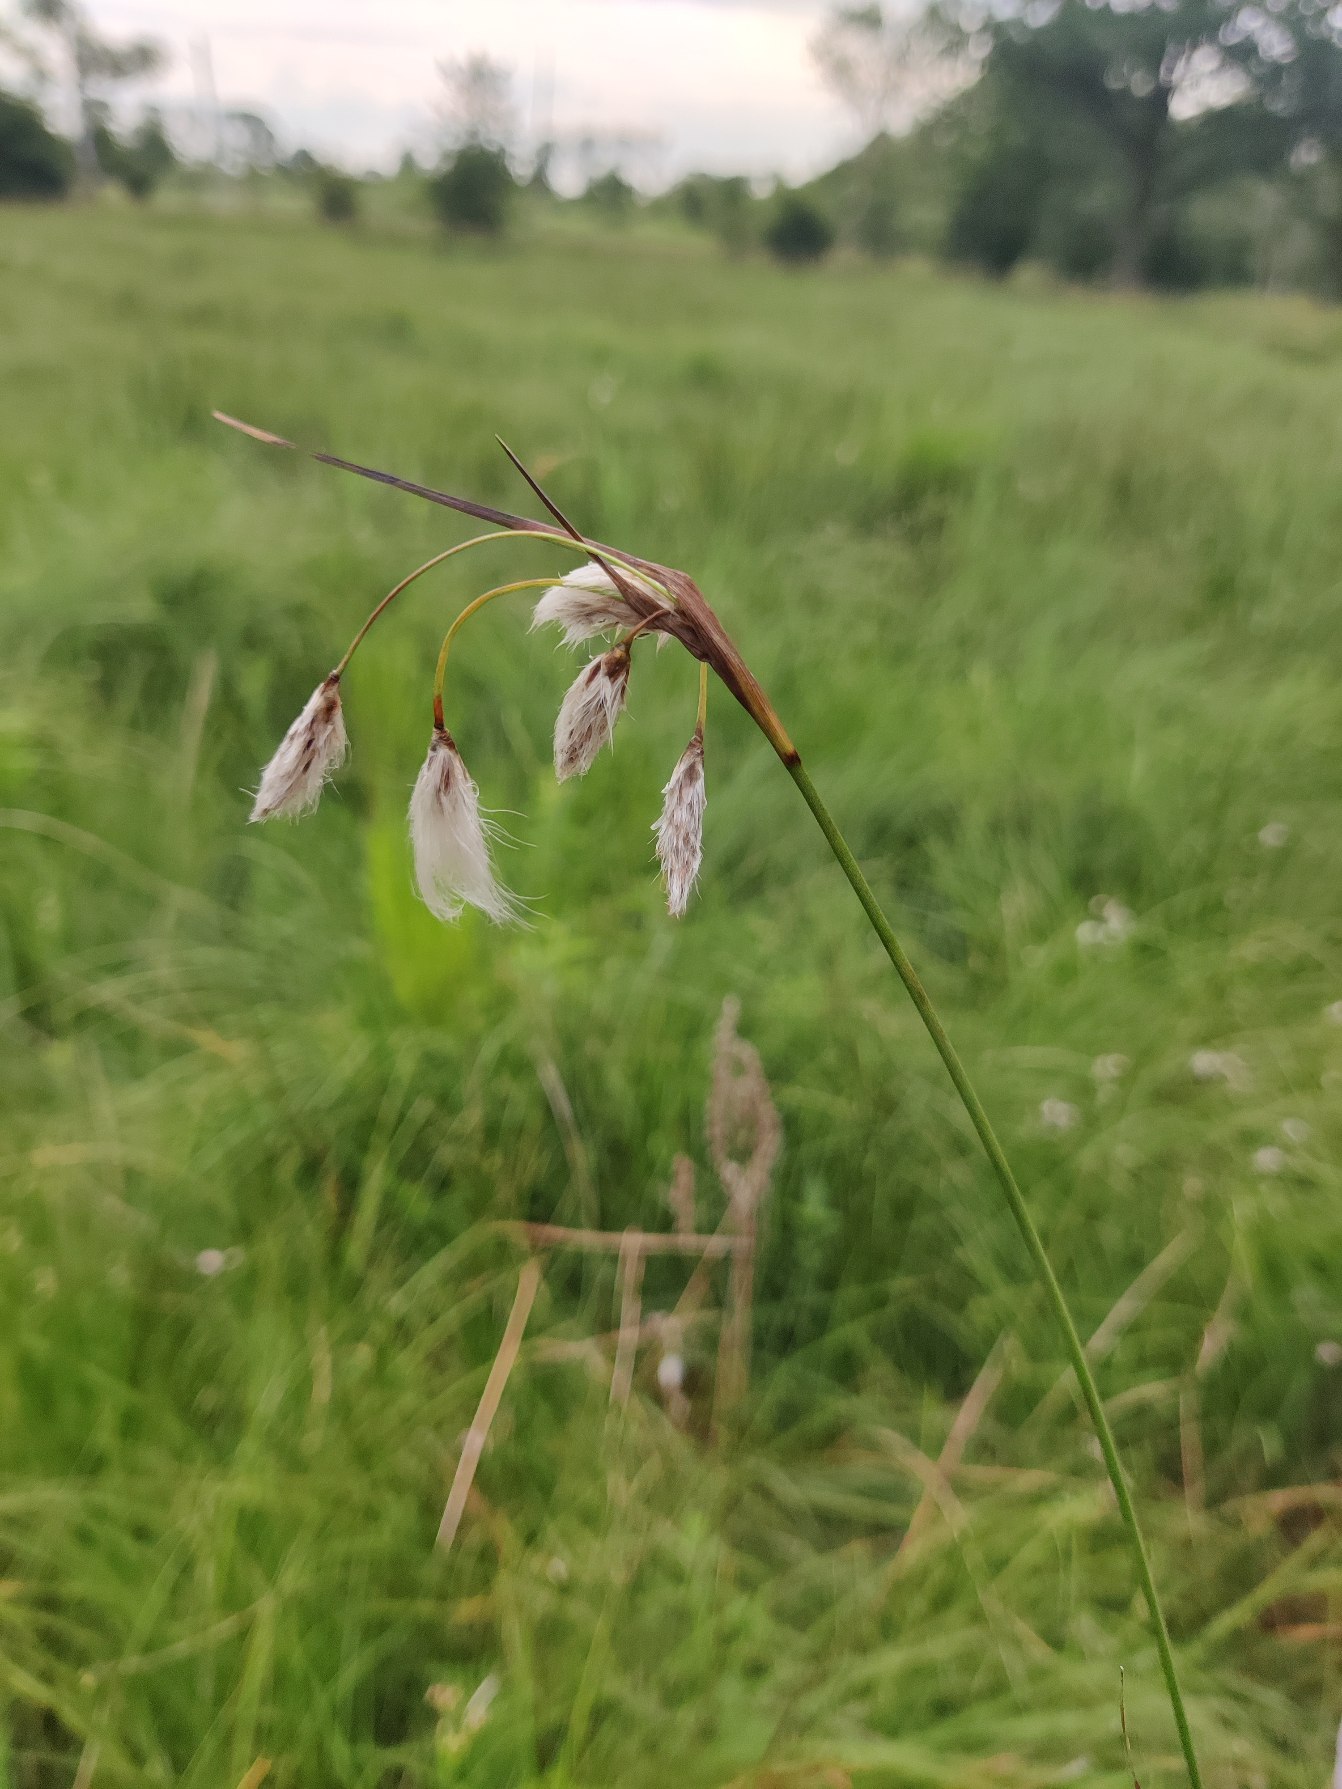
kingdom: Plantae
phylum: Tracheophyta
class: Liliopsida
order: Poales
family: Cyperaceae
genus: Eriophorum
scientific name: Eriophorum angustifolium
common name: Smalbladet kæruld
